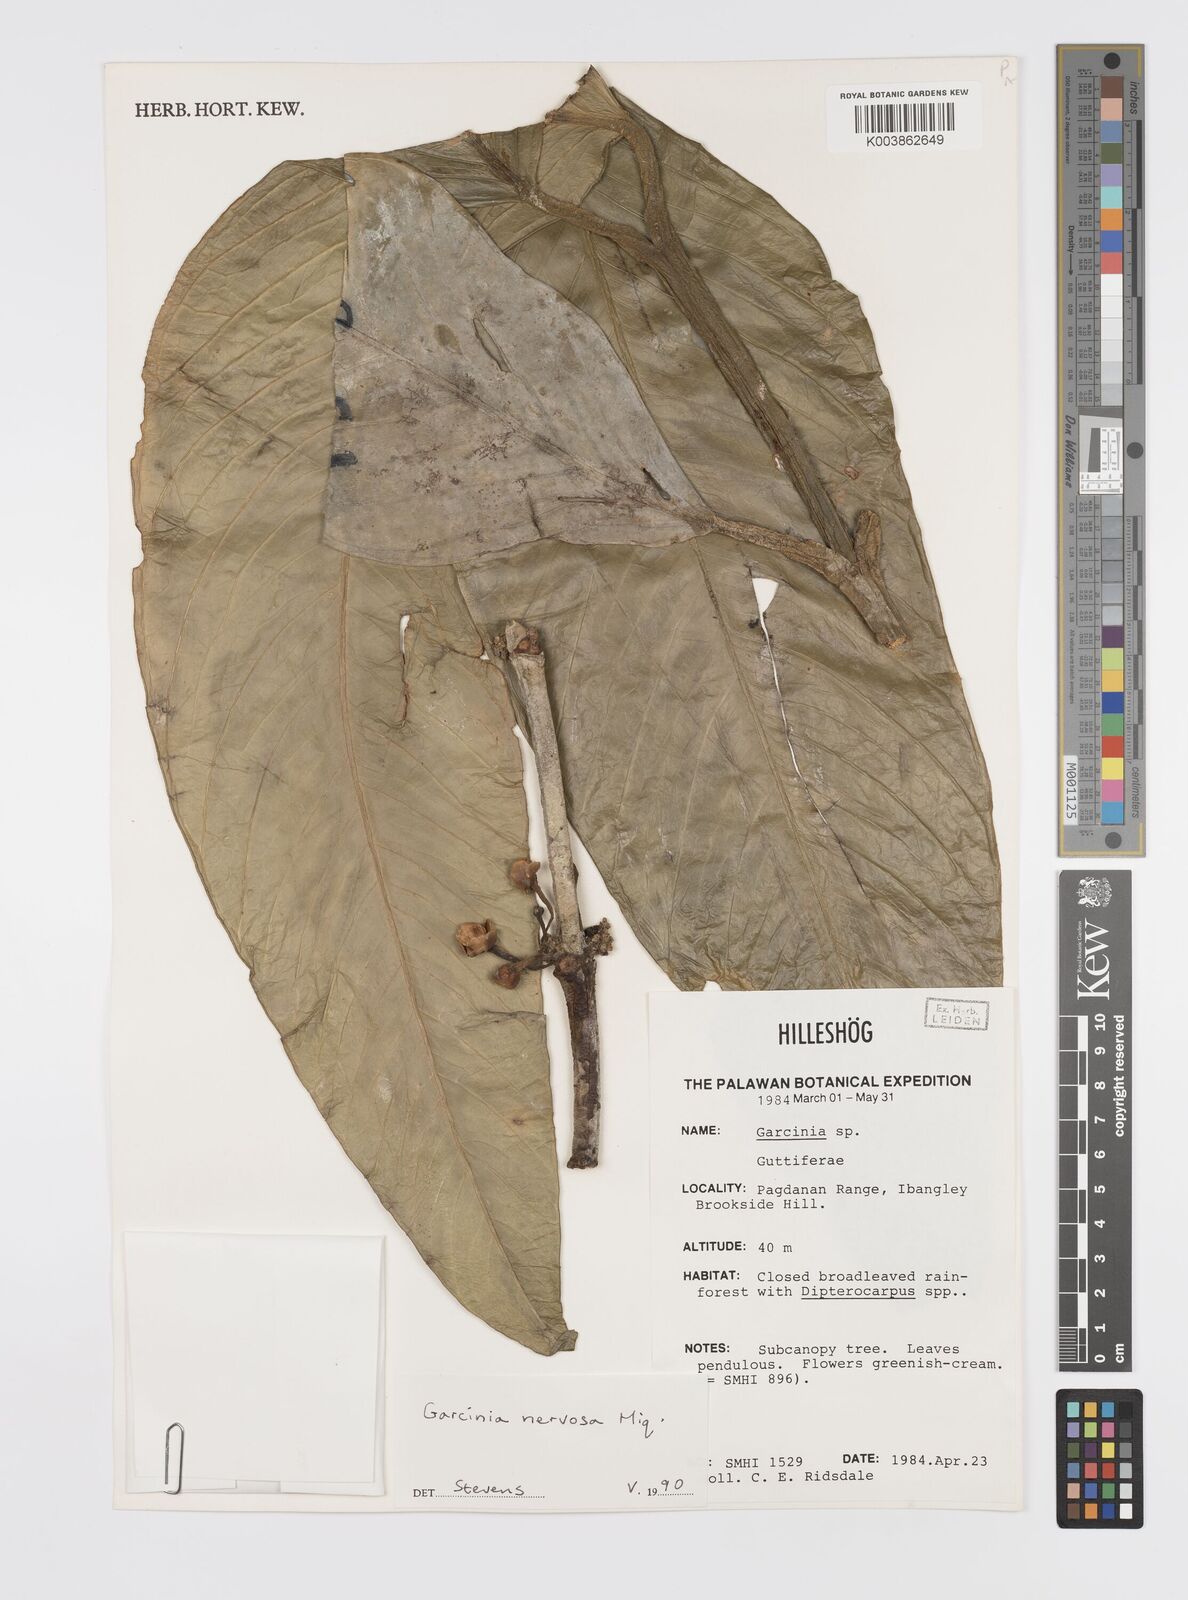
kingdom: Plantae
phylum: Tracheophyta
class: Magnoliopsida
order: Malpighiales
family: Clusiaceae
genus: Garcinia
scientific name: Garcinia nervosa
